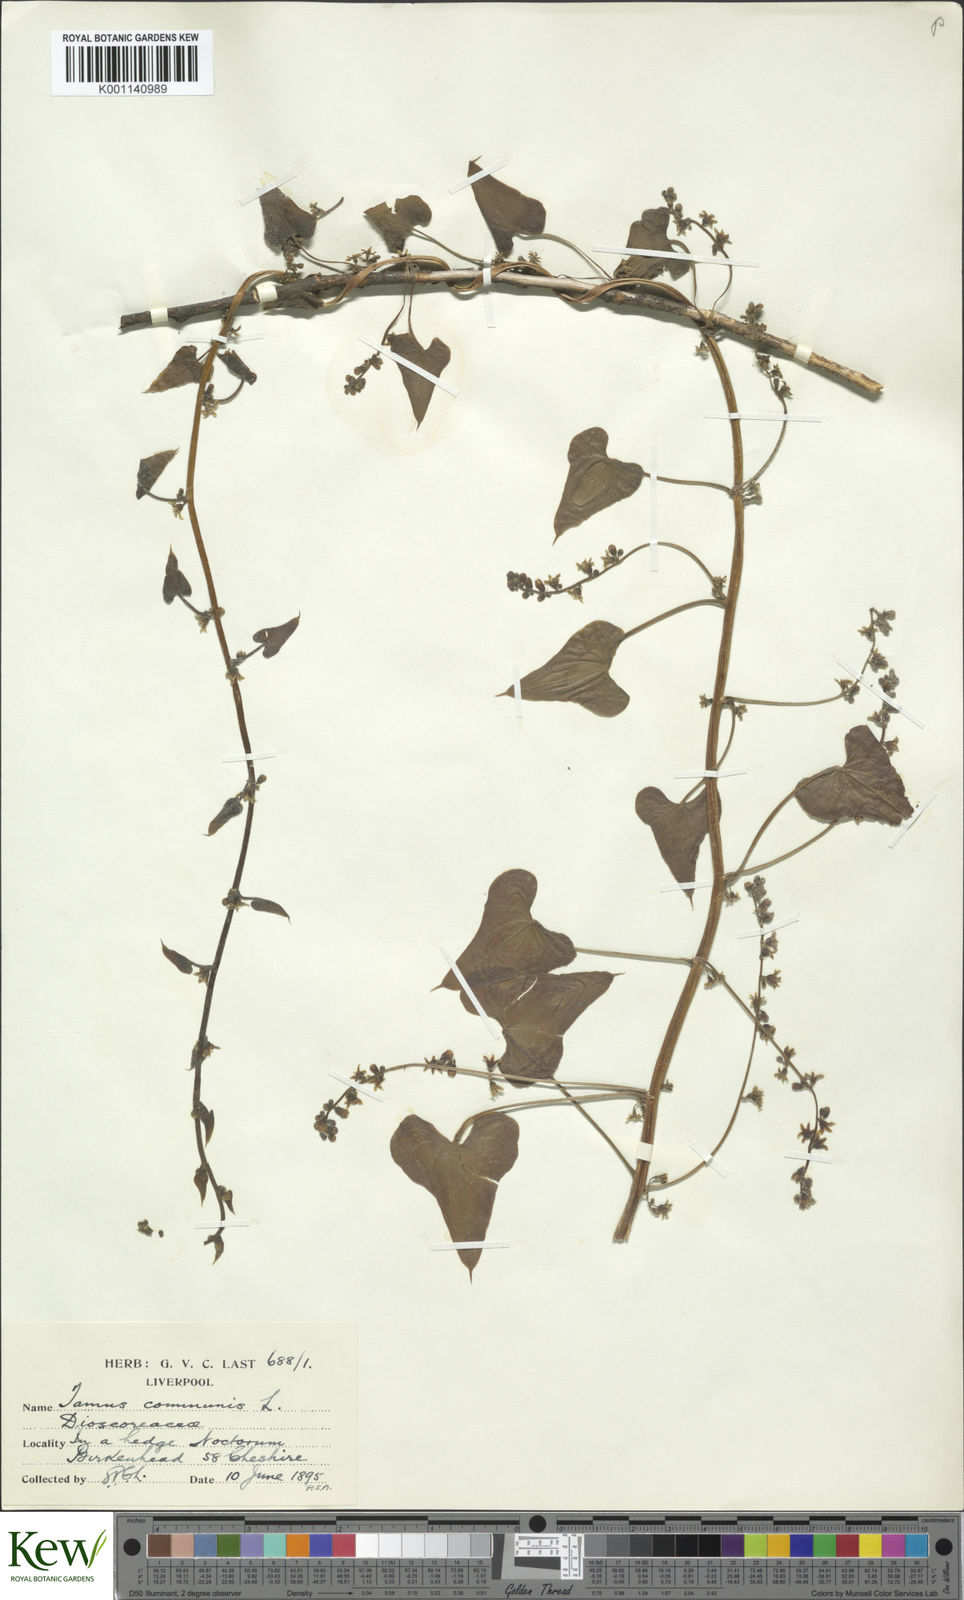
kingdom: Plantae
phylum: Tracheophyta
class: Liliopsida
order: Dioscoreales
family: Dioscoreaceae
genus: Dioscorea
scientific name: Dioscorea communis
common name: Black-bindweed
